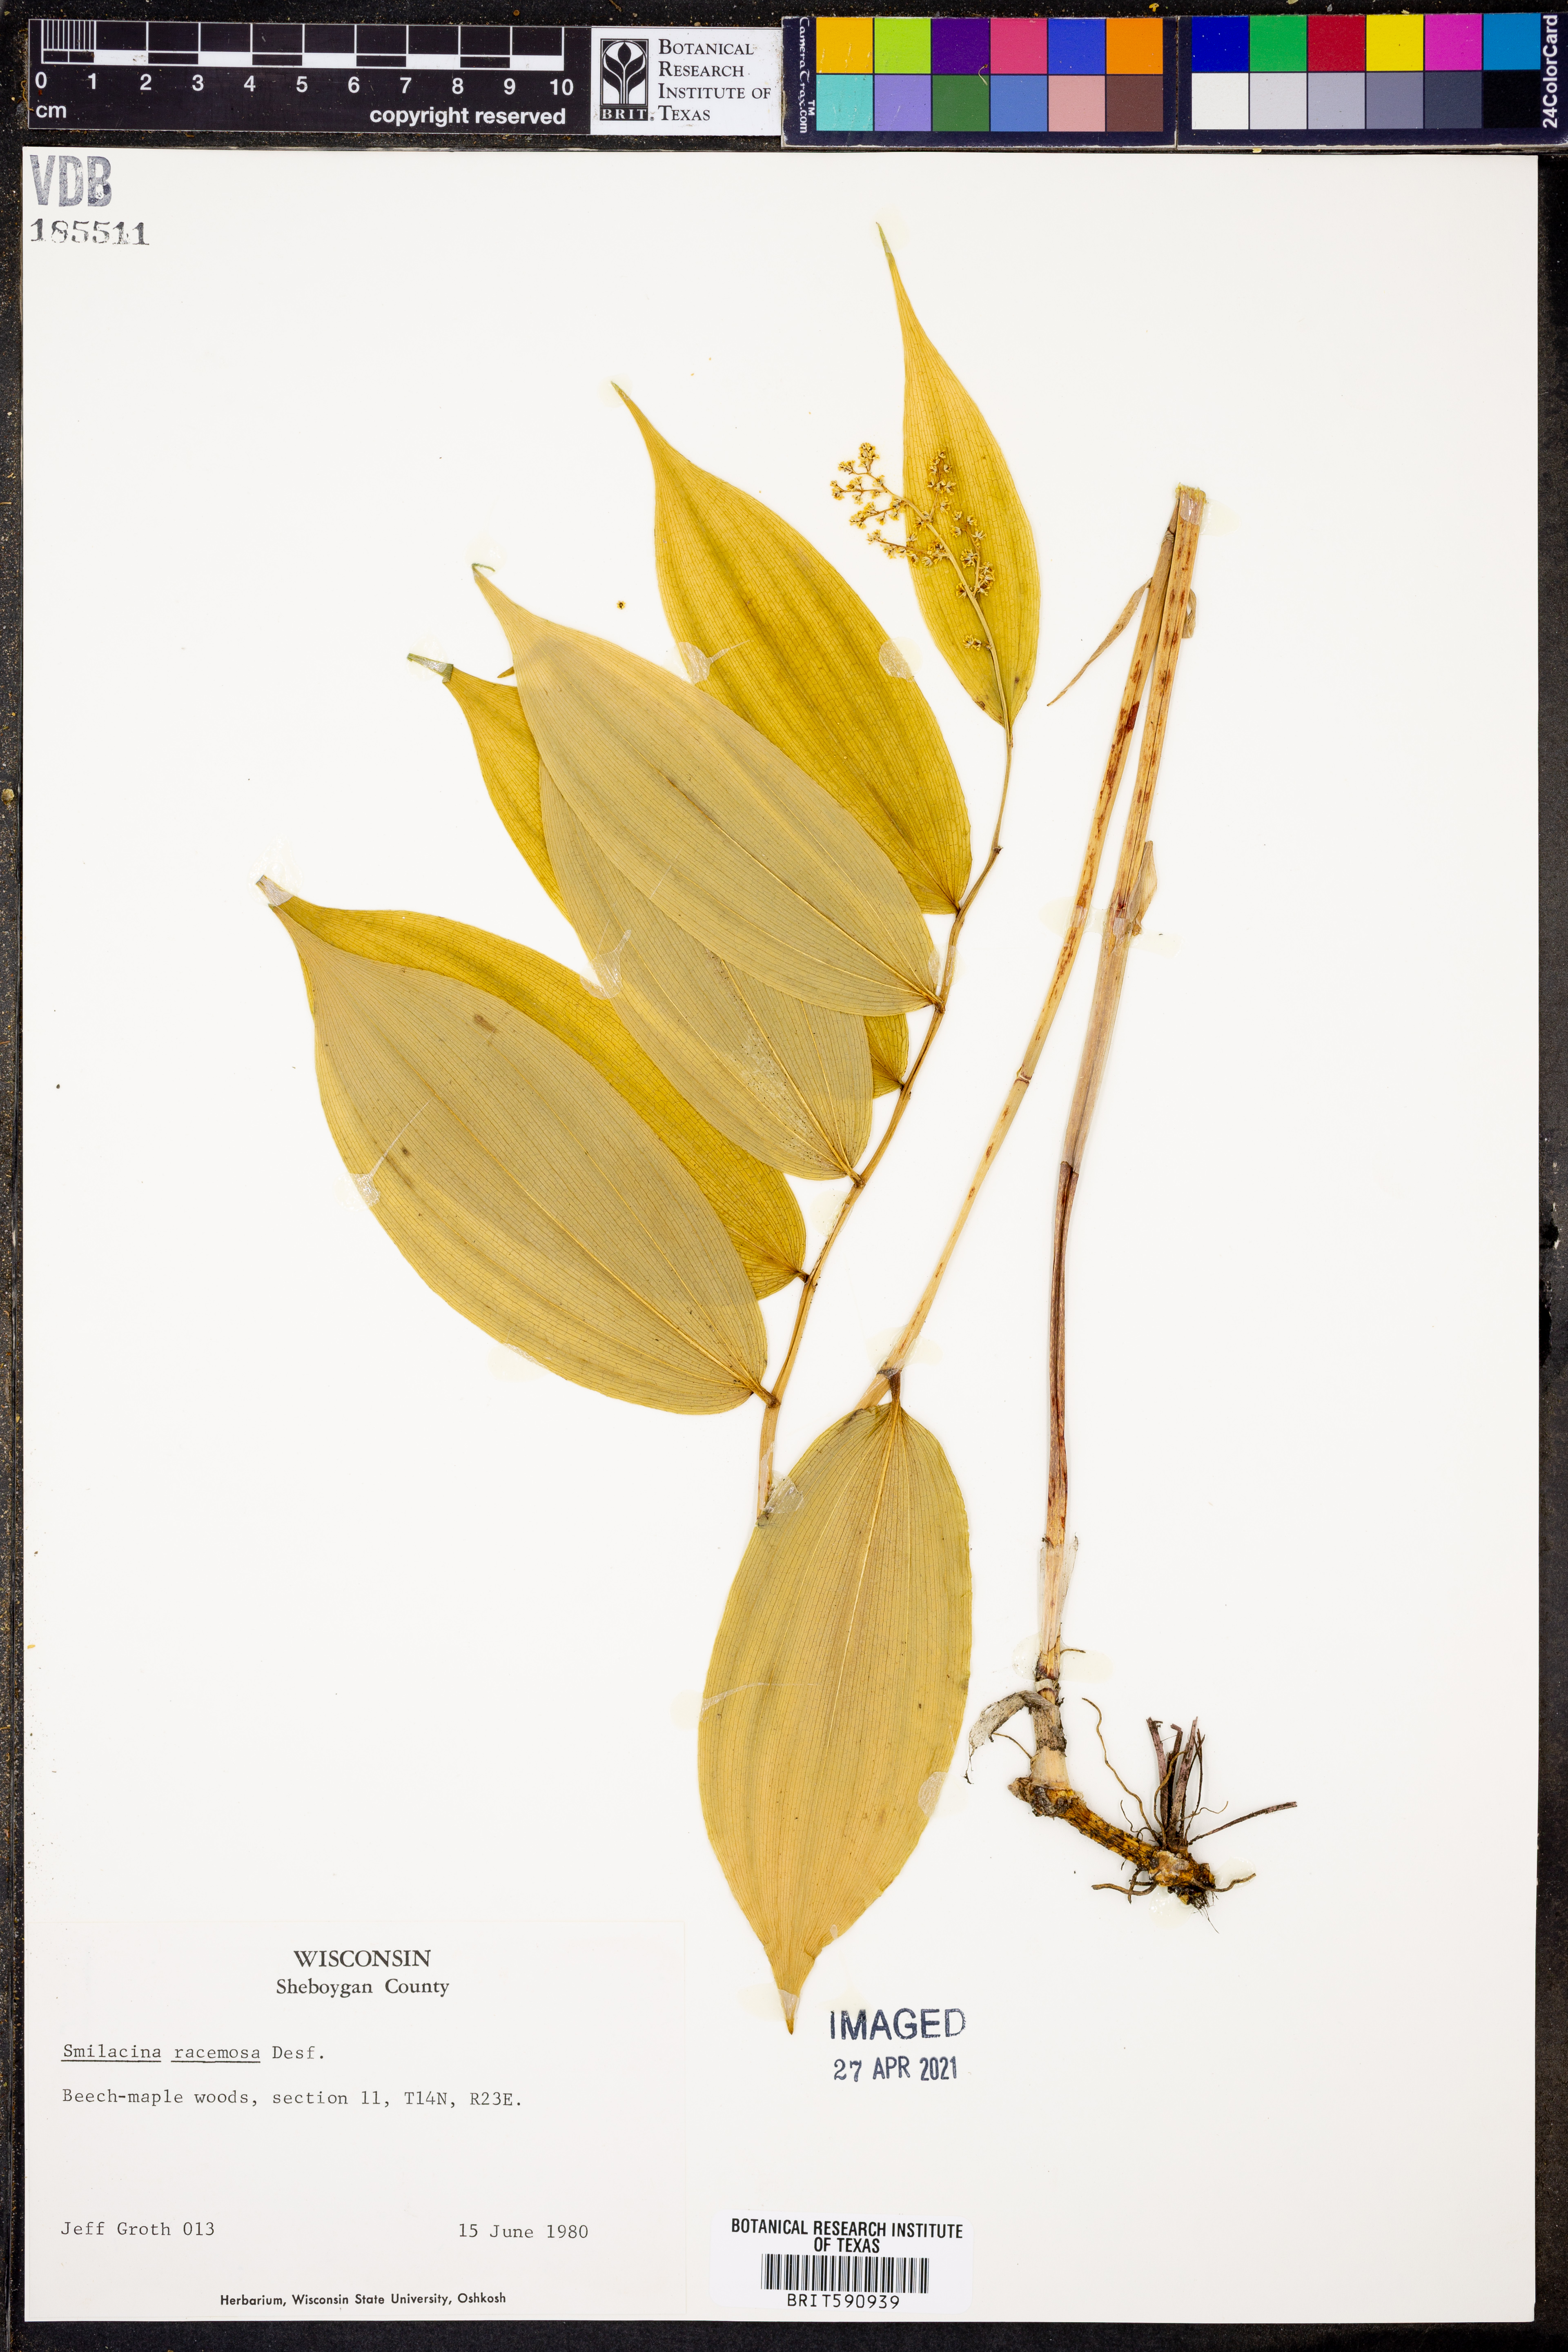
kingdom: Plantae
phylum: Tracheophyta
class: Liliopsida
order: Asparagales
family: Asparagaceae
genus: Maianthemum
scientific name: Maianthemum racemosum
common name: False spikenard
